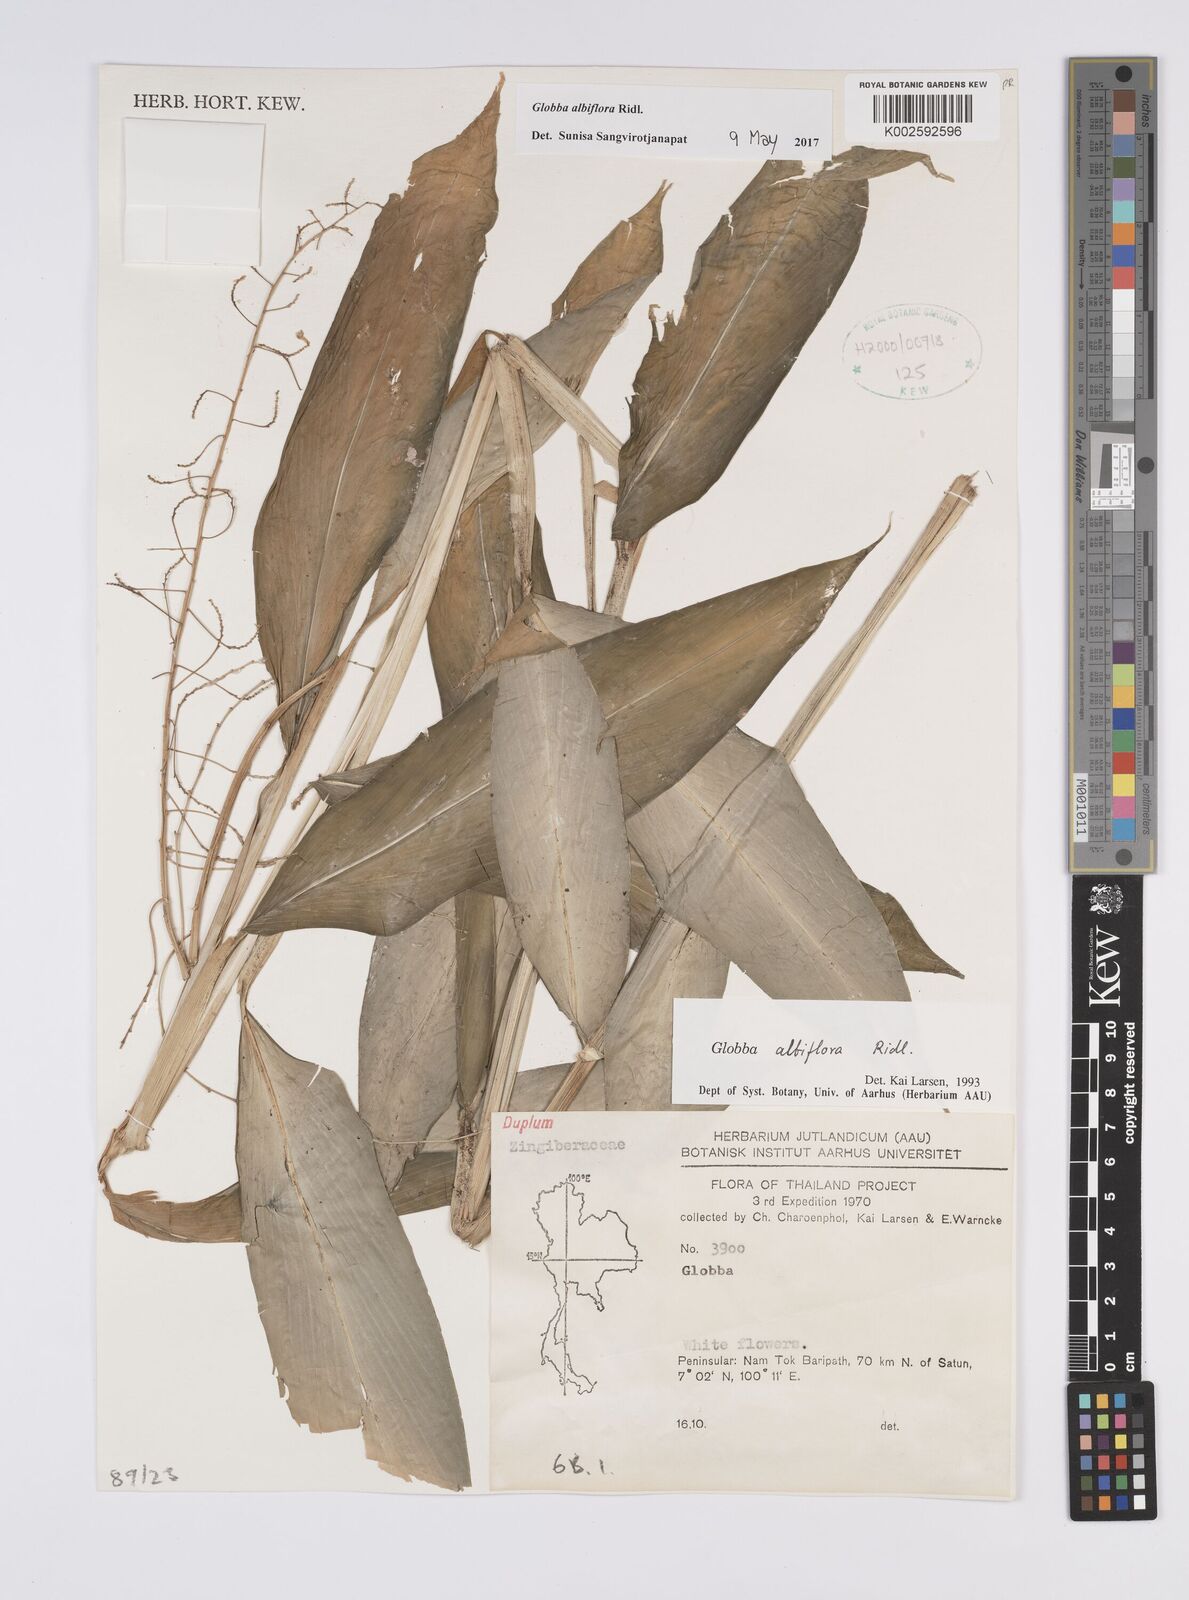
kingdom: Plantae
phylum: Tracheophyta
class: Liliopsida
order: Zingiberales
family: Zingiberaceae
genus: Globba
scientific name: Globba albiflora
